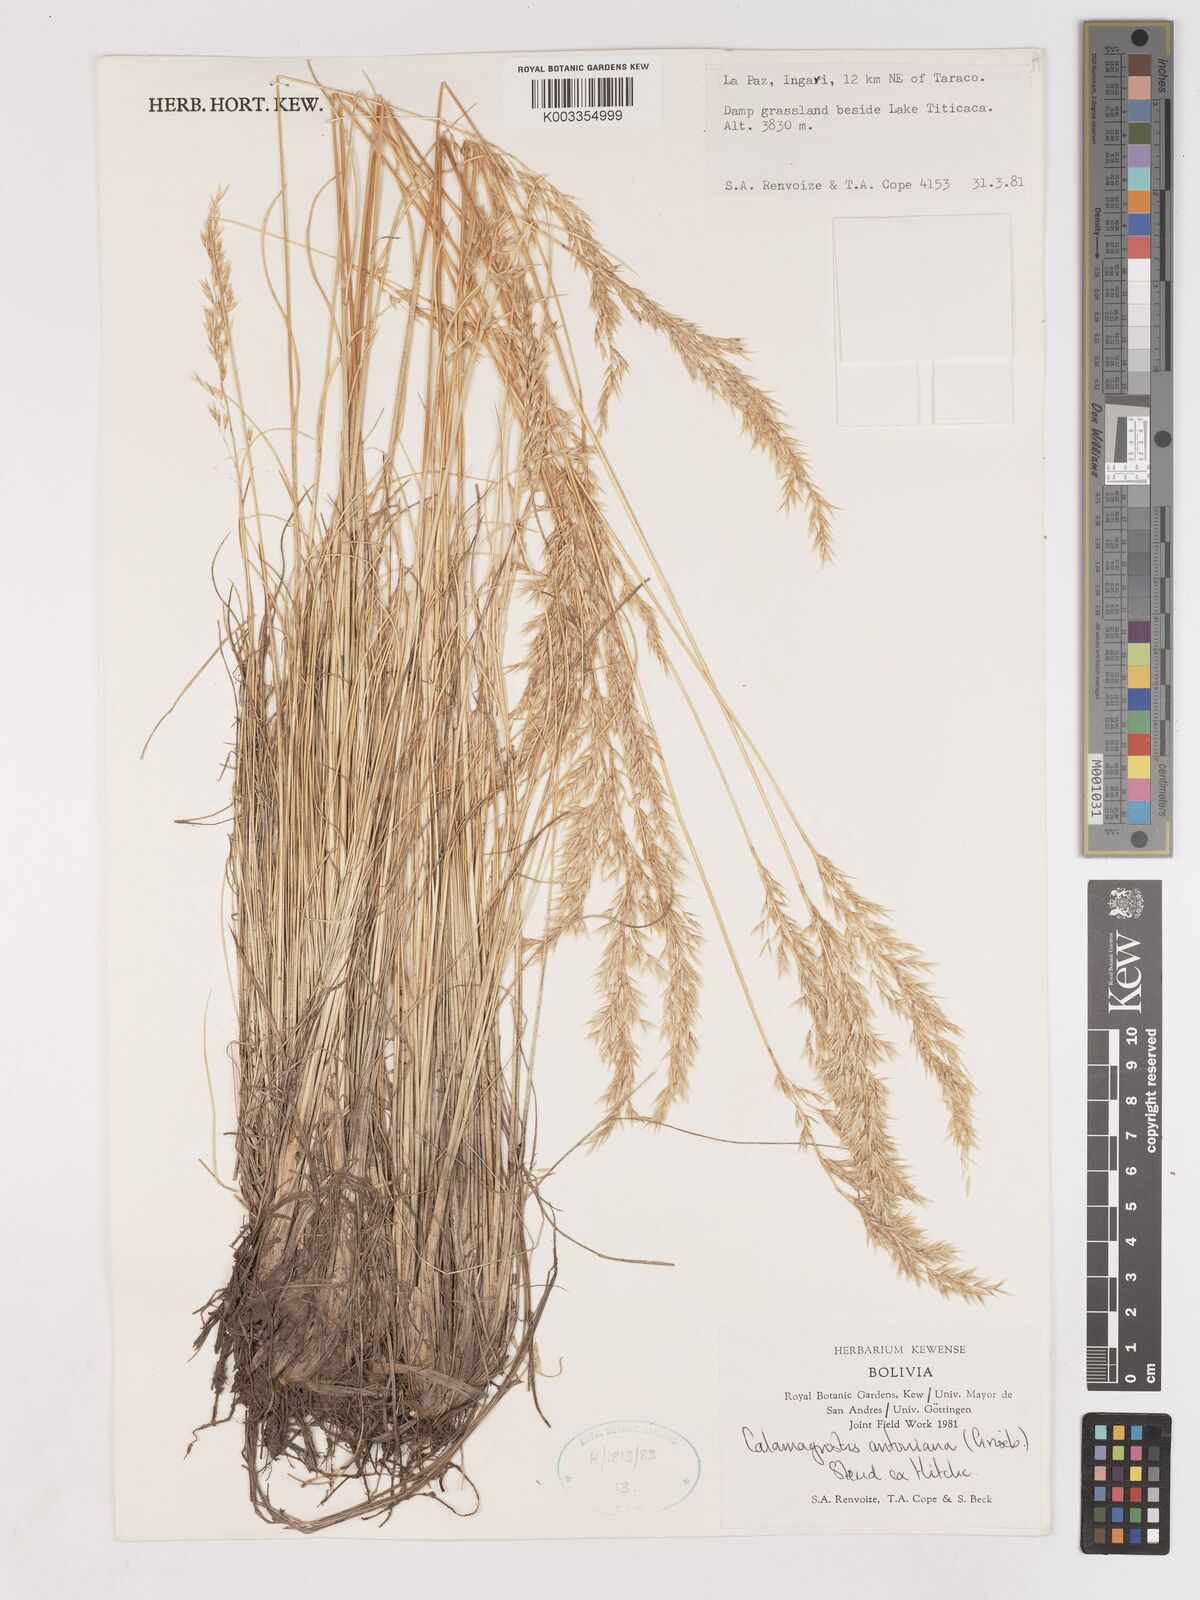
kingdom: Plantae
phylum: Tracheophyta
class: Liliopsida
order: Poales
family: Poaceae
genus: Cinnagrostis
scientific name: Cinnagrostis brevifolia
